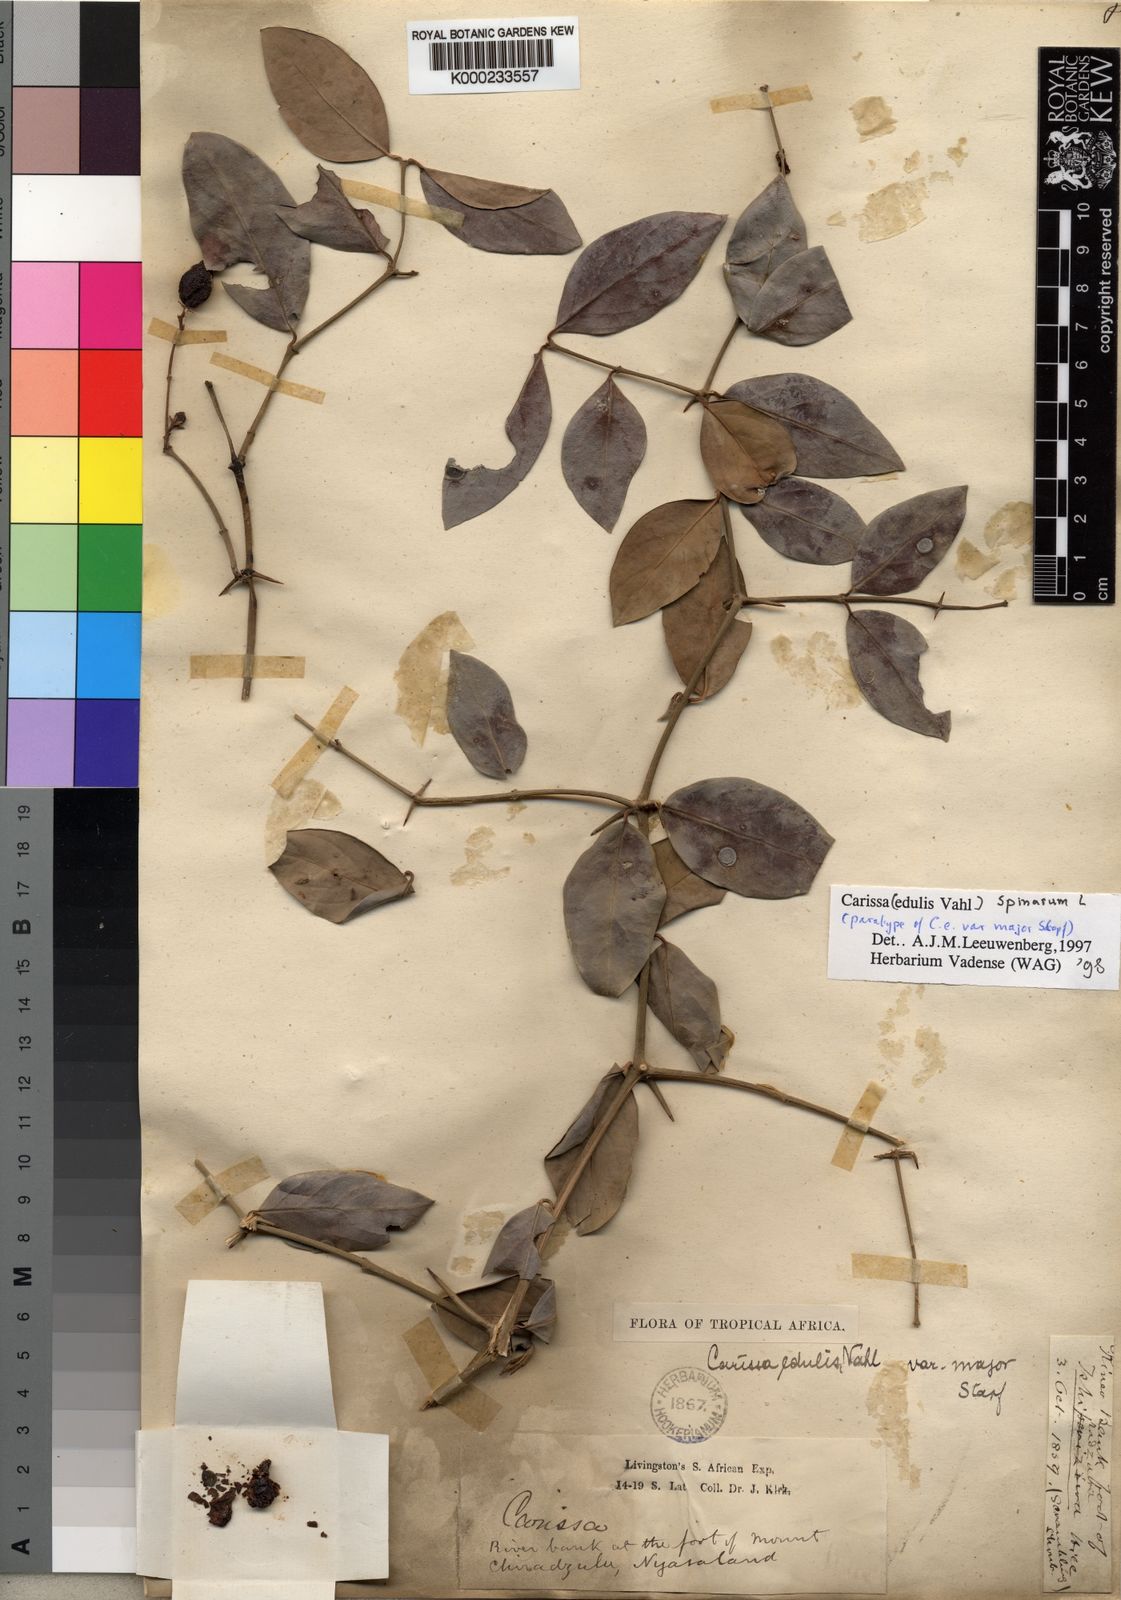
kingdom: Plantae
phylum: Tracheophyta
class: Magnoliopsida
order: Gentianales
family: Apocynaceae
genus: Carissa
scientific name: Carissa spinarum
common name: Egyptian carissa
